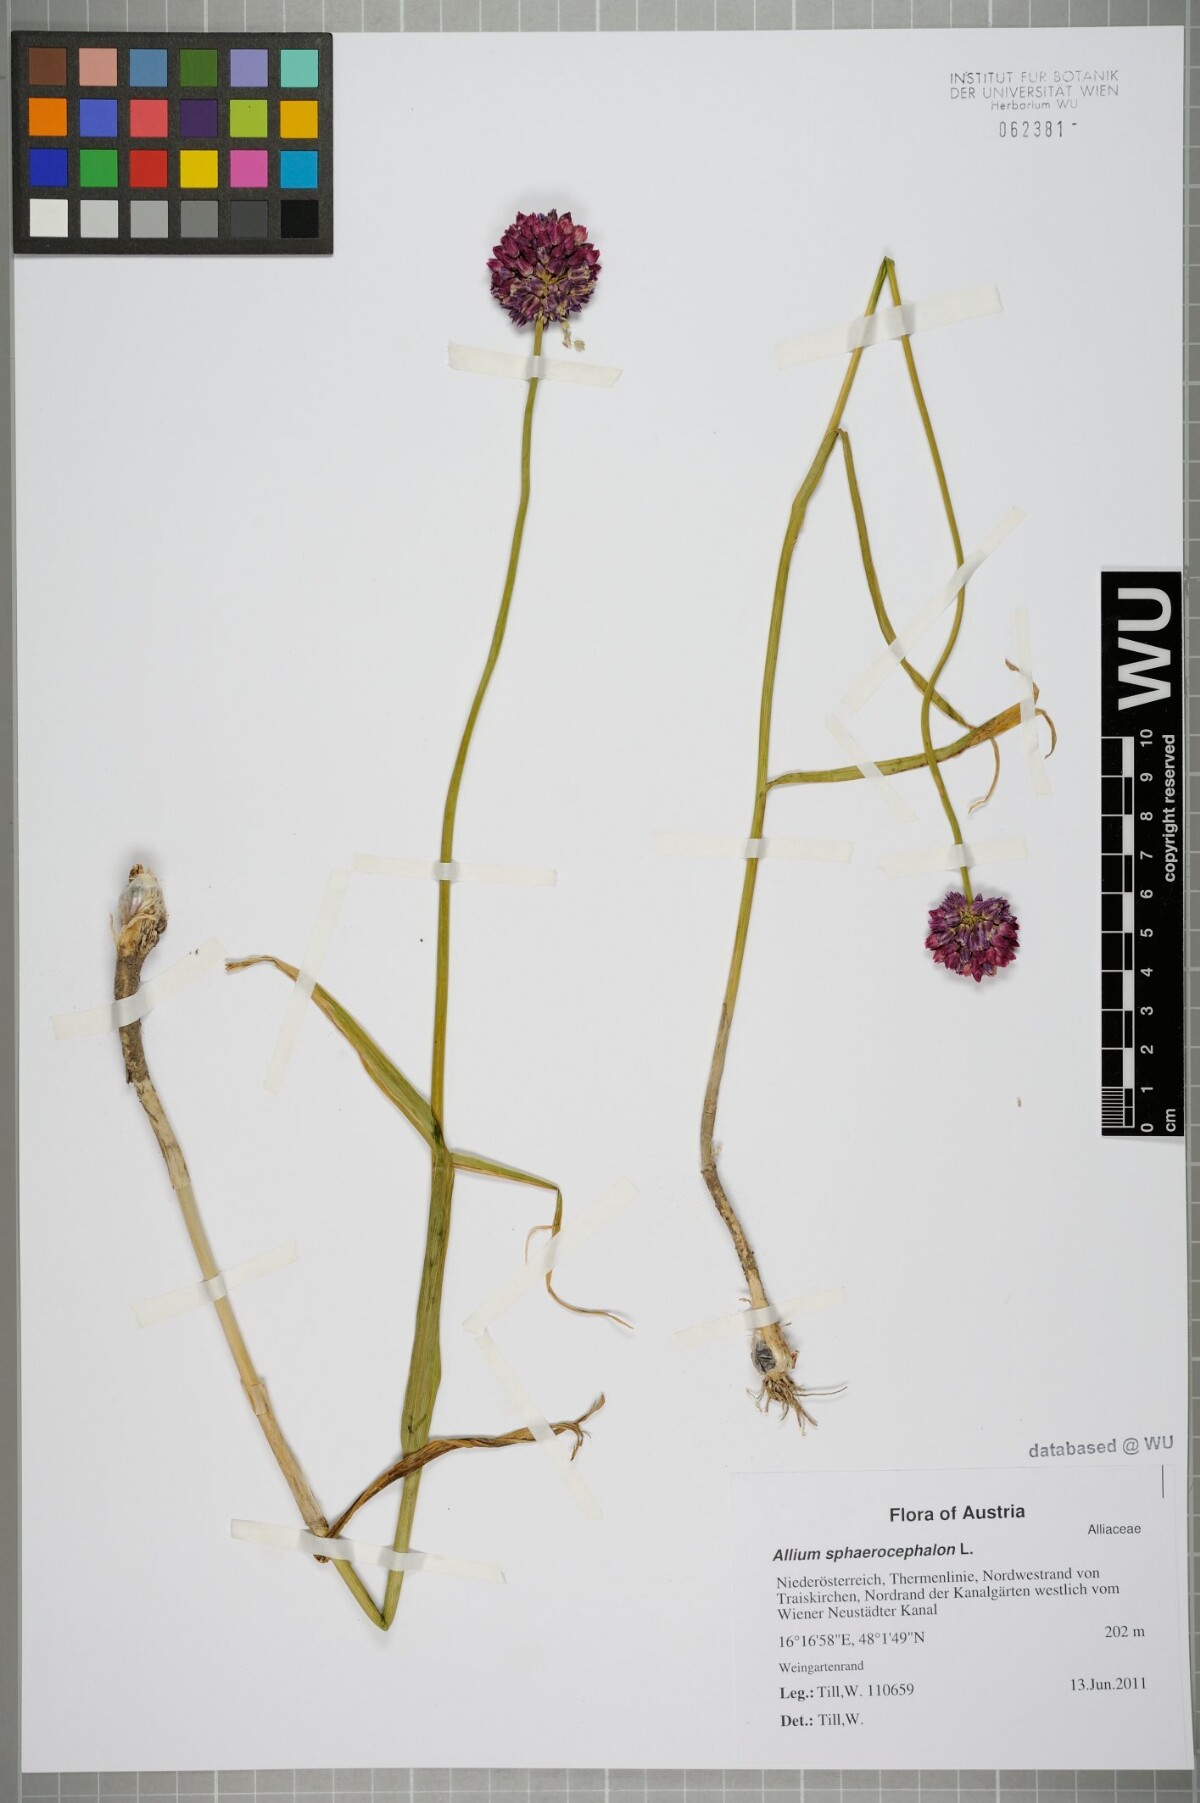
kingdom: Plantae
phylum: Tracheophyta
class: Liliopsida
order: Asparagales
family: Amaryllidaceae
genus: Allium
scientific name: Allium sphaerocephalon
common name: Round-headed leek
